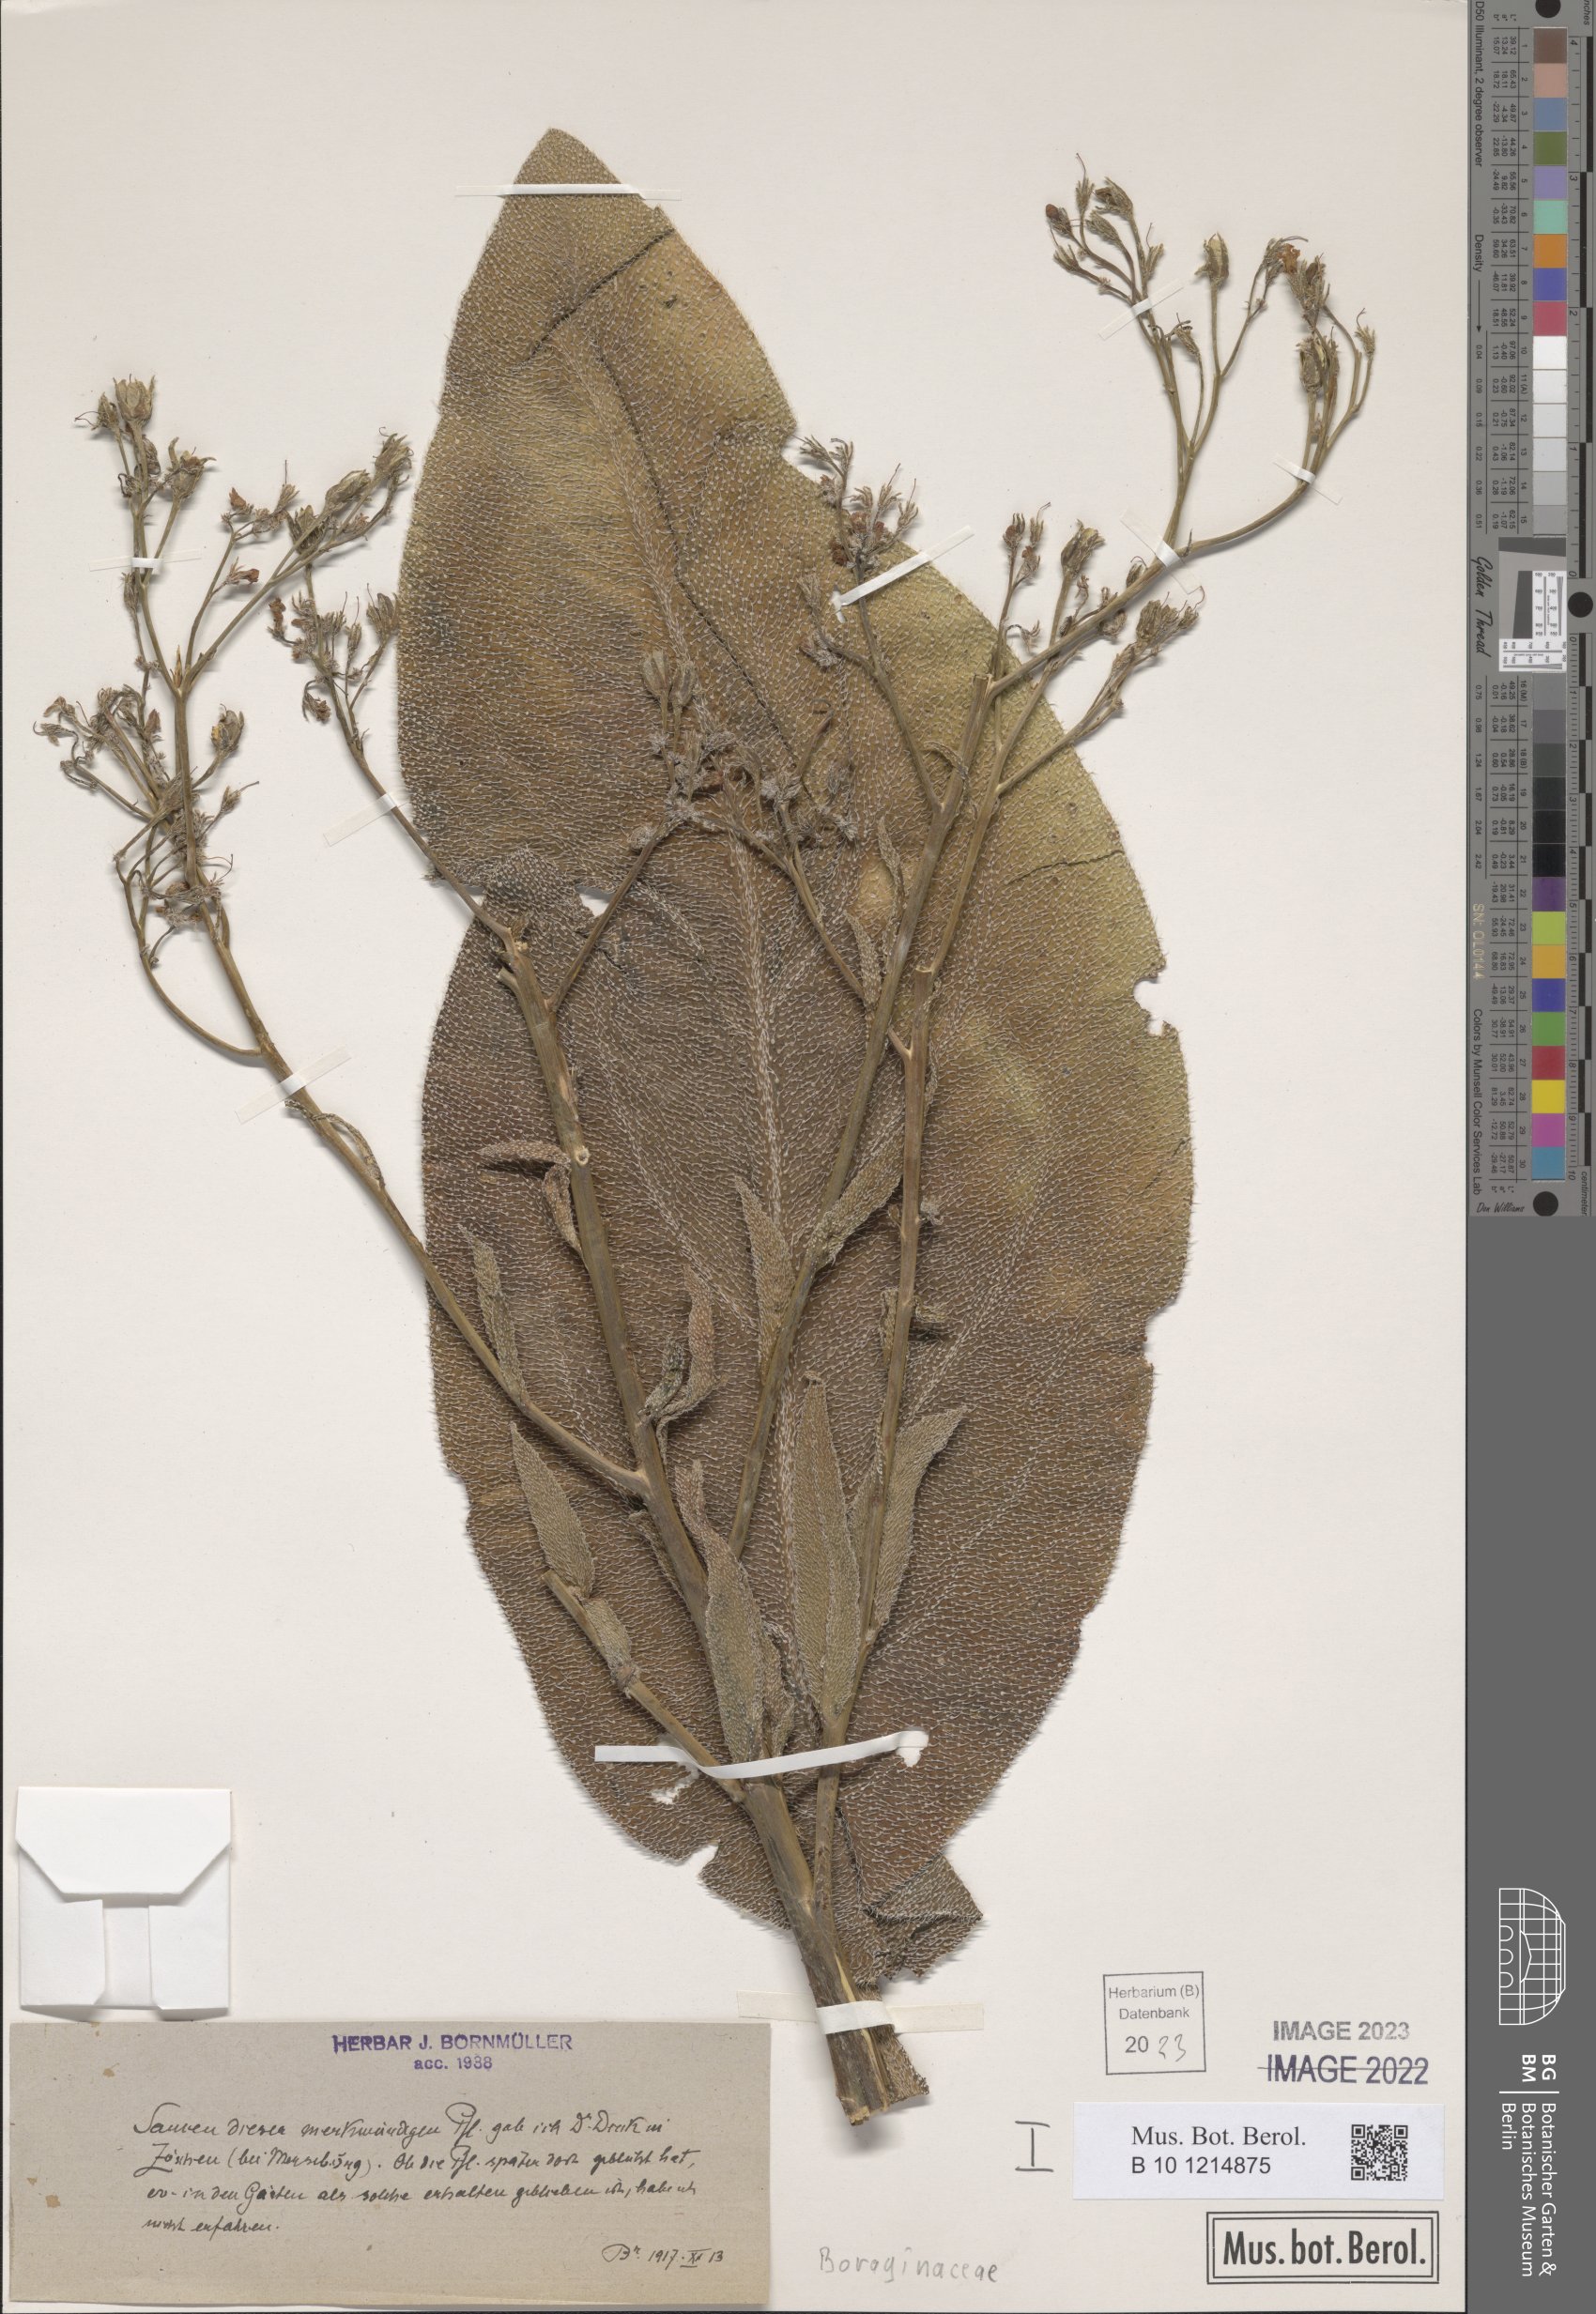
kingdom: Plantae
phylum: Tracheophyta
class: Magnoliopsida
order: Boraginales
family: Boraginaceae
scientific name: Boraginaceae
